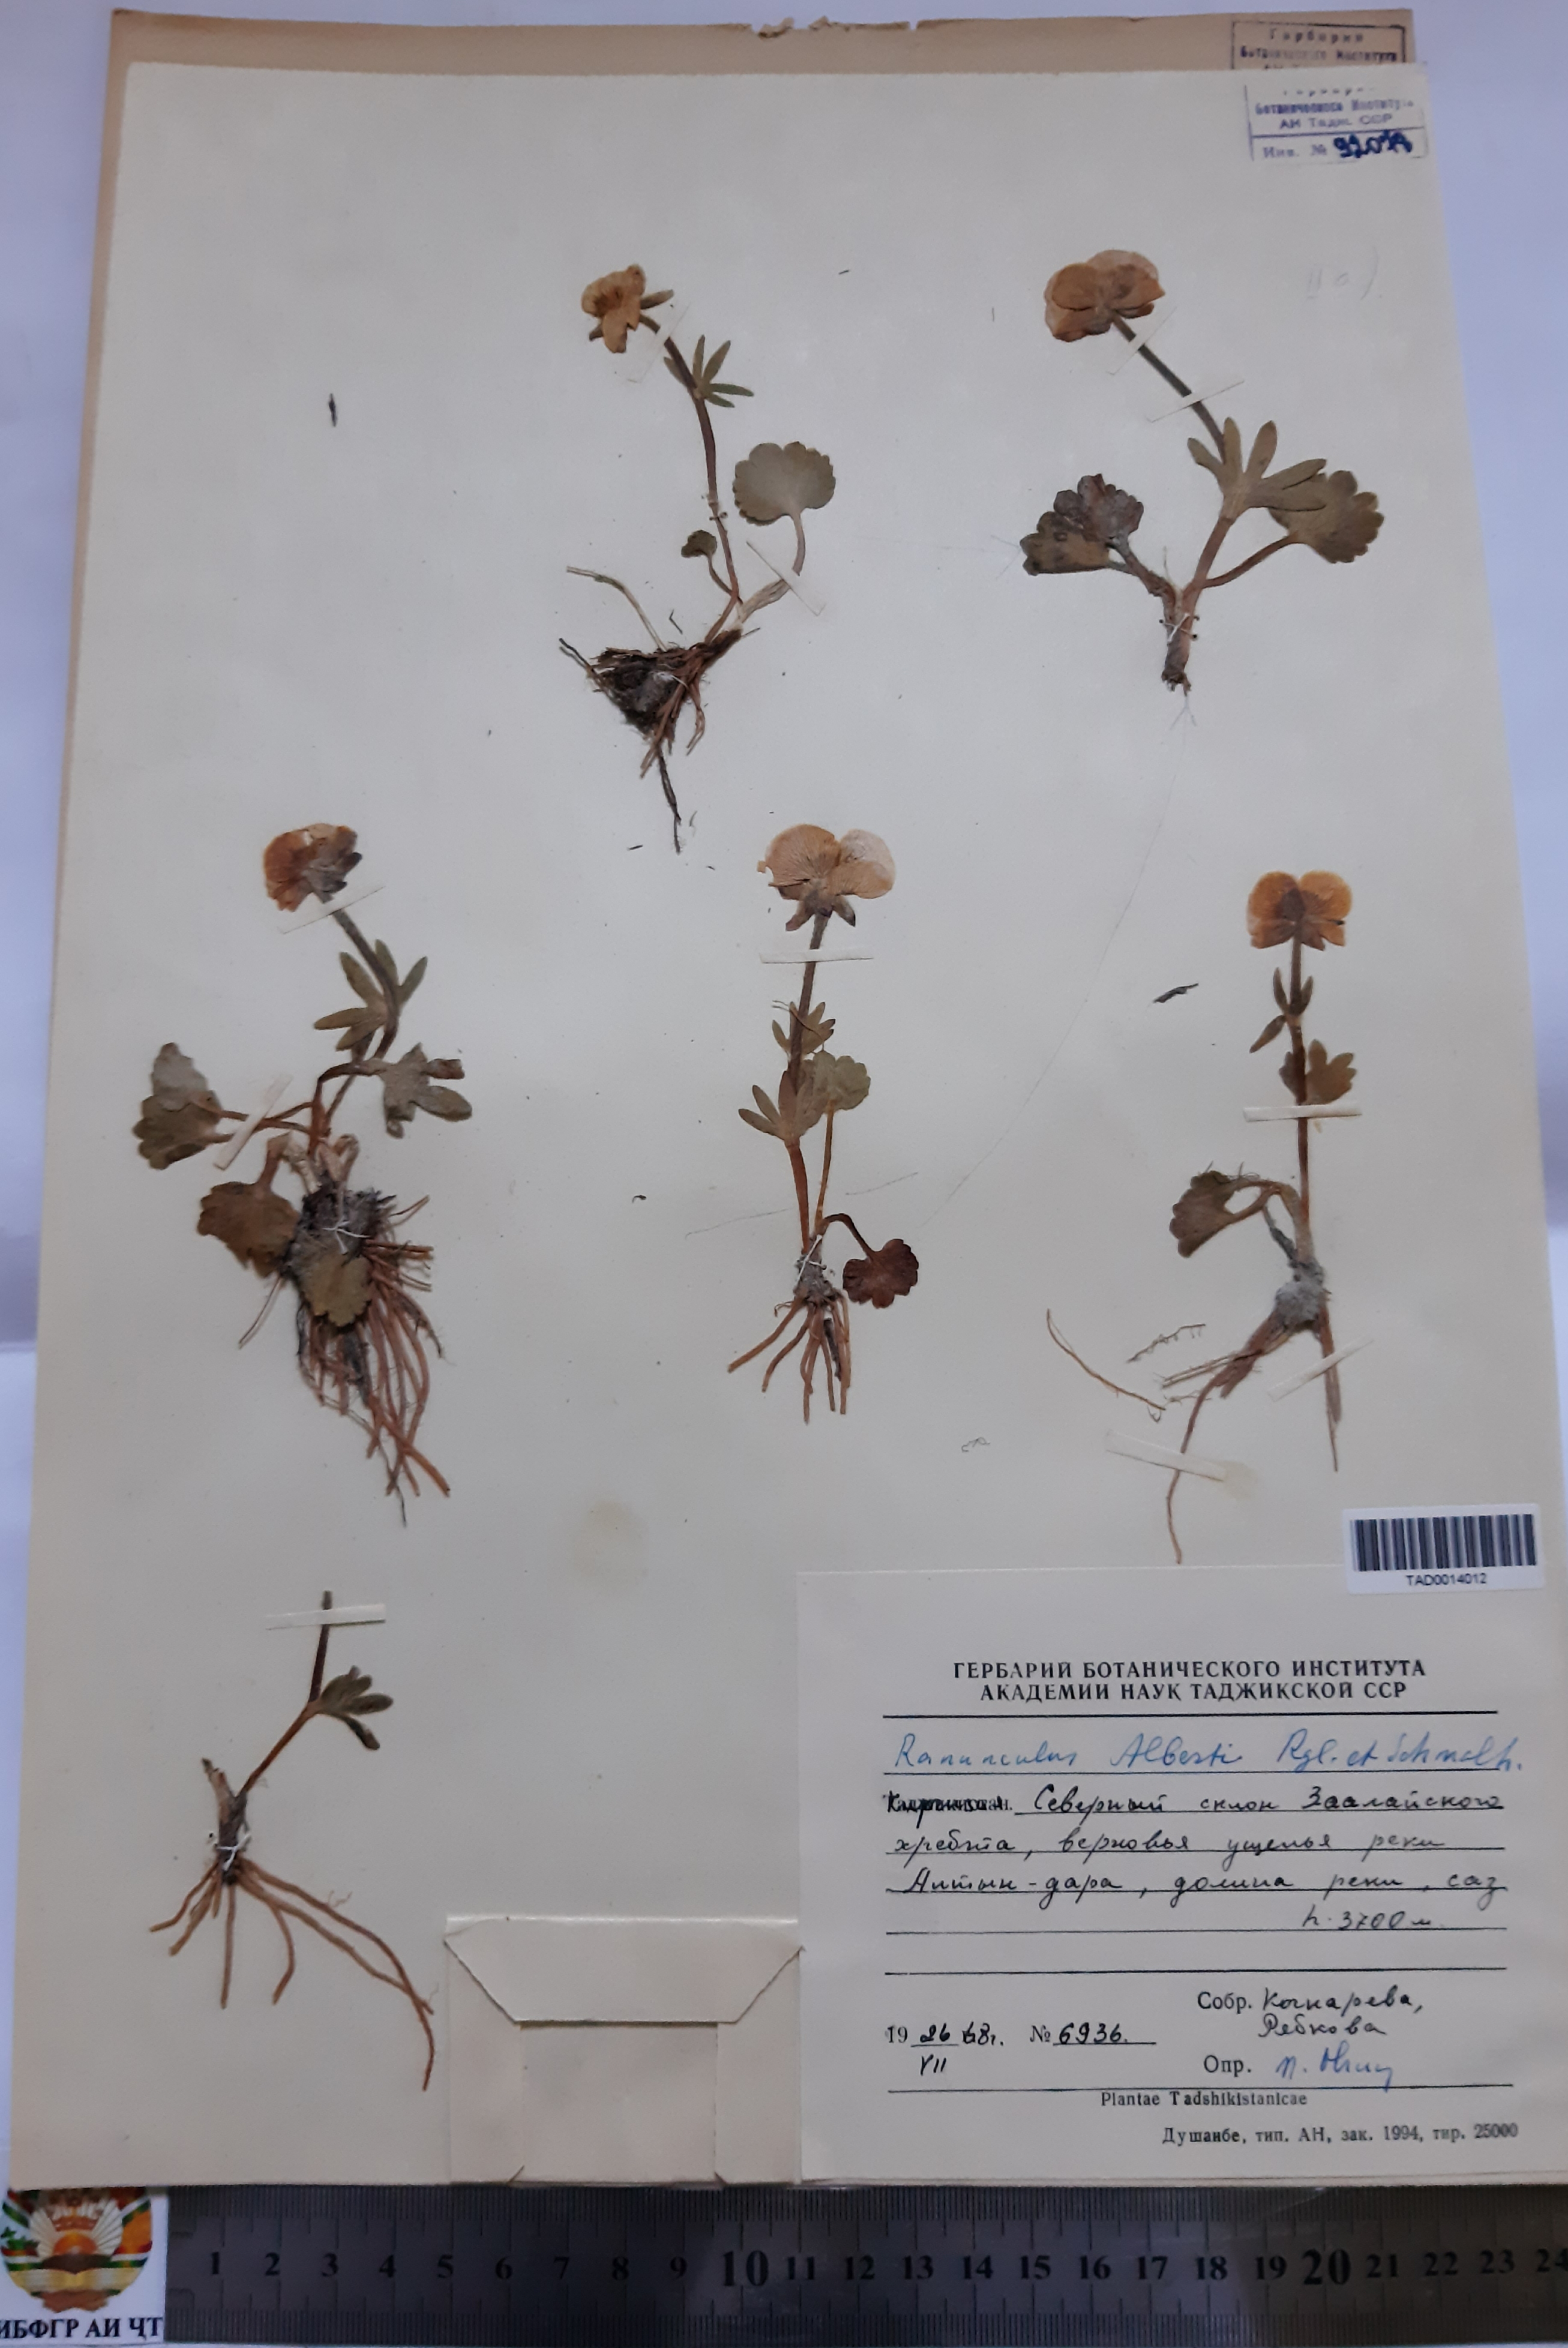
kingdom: Plantae
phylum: Tracheophyta
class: Magnoliopsida
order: Ranunculales
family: Ranunculaceae
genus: Ranunculus
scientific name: Ranunculus alberti
